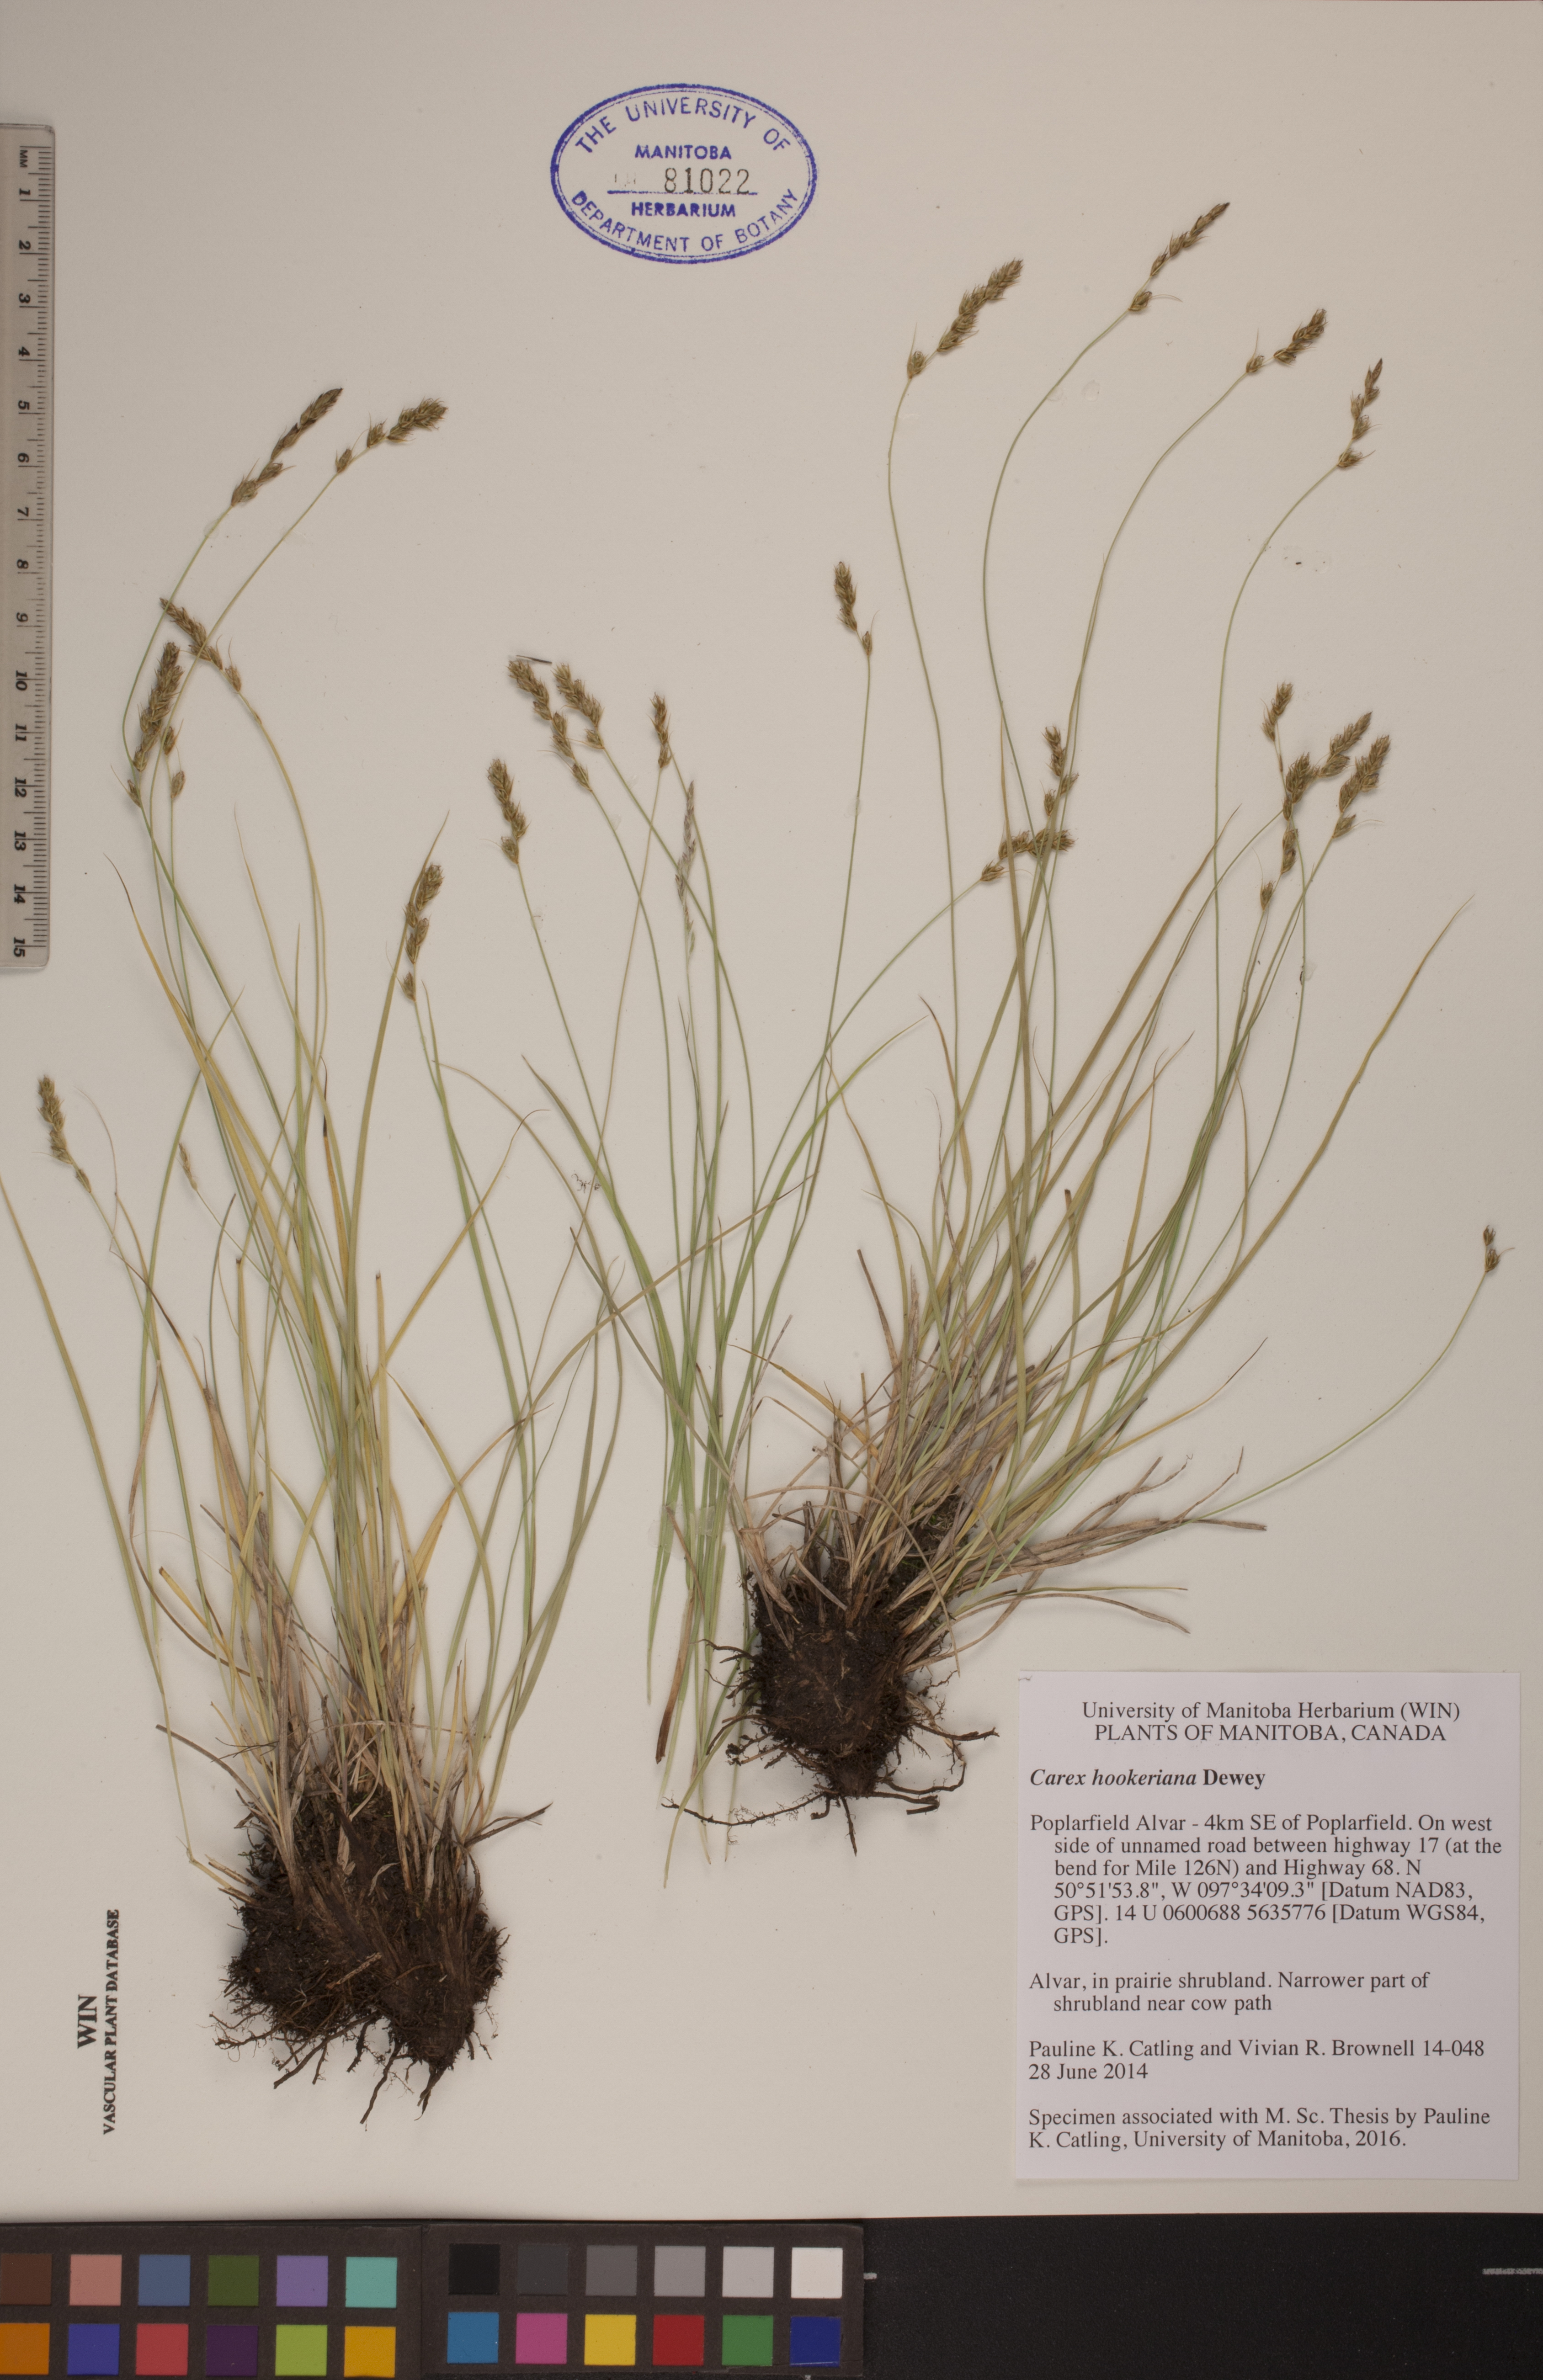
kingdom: Plantae
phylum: Tracheophyta
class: Liliopsida
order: Poales
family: Cyperaceae
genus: Carex
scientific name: Carex hookeriana
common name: Hooker's sedge
